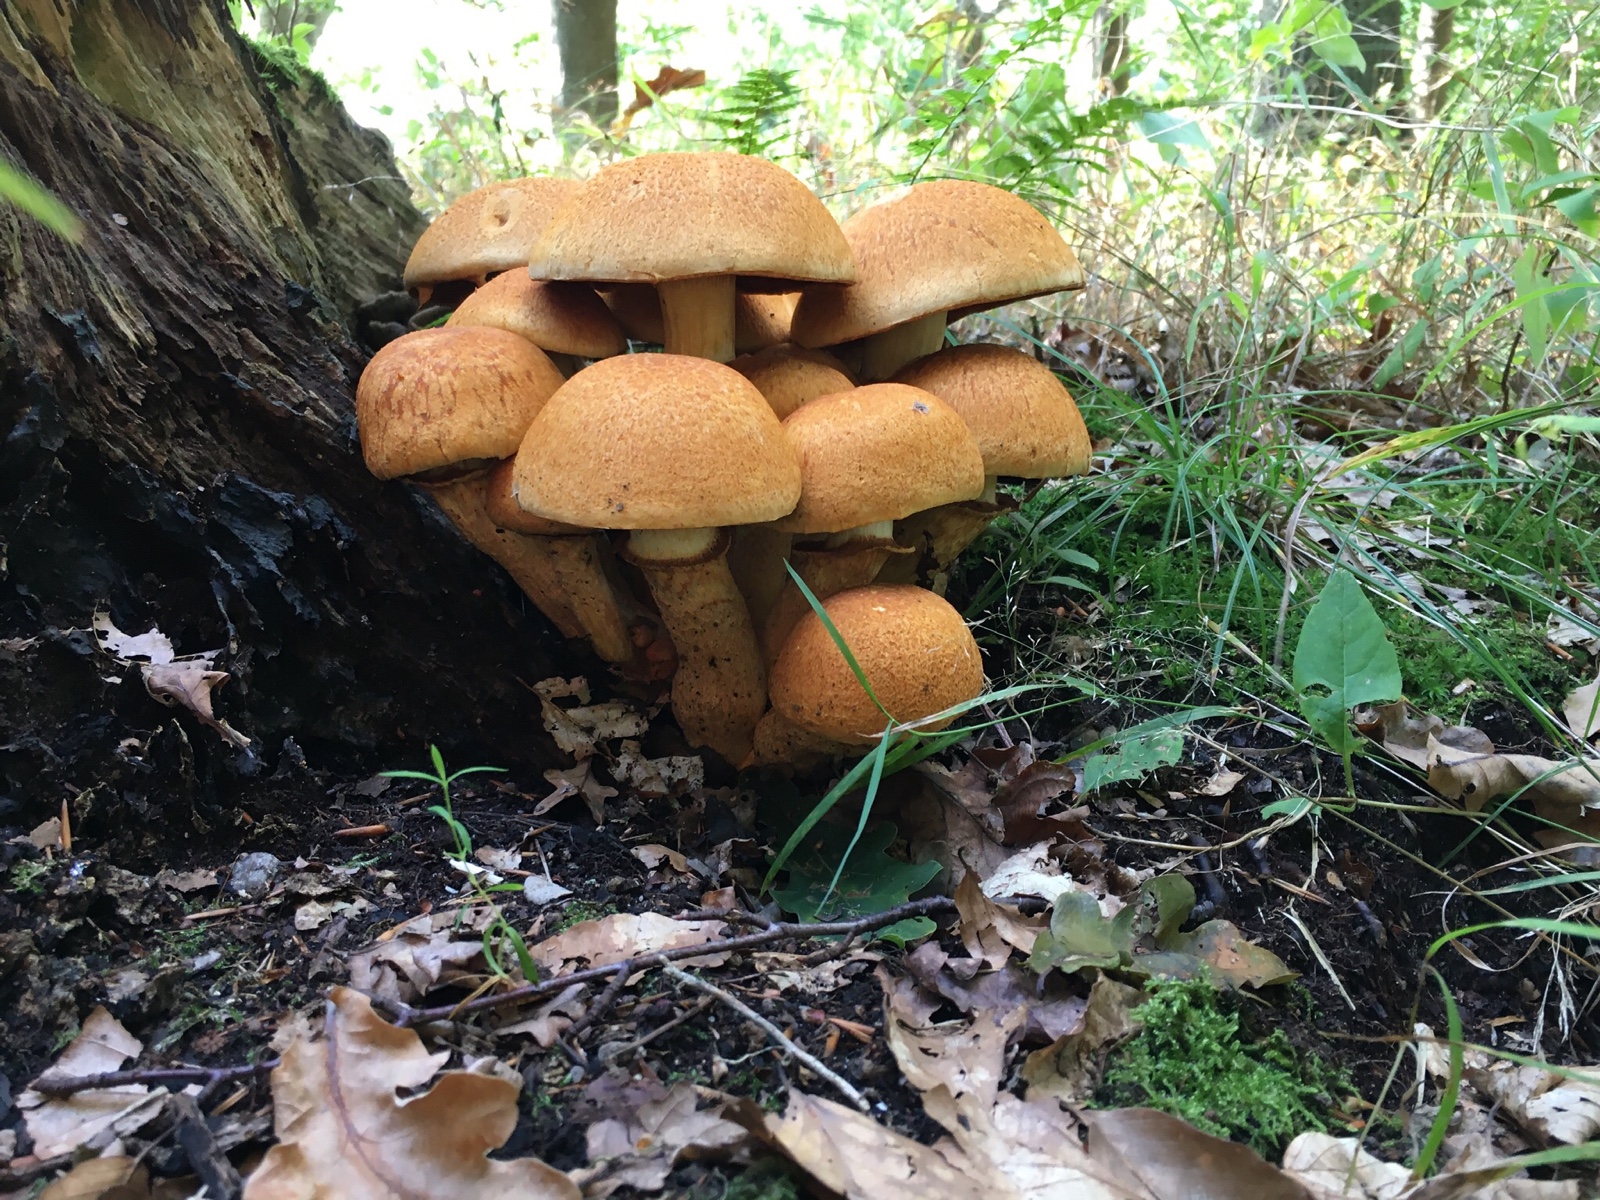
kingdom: Fungi
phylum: Basidiomycota
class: Agaricomycetes
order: Agaricales
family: Hymenogastraceae
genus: Gymnopilus
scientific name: Gymnopilus spectabilis
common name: fibret flammehat
